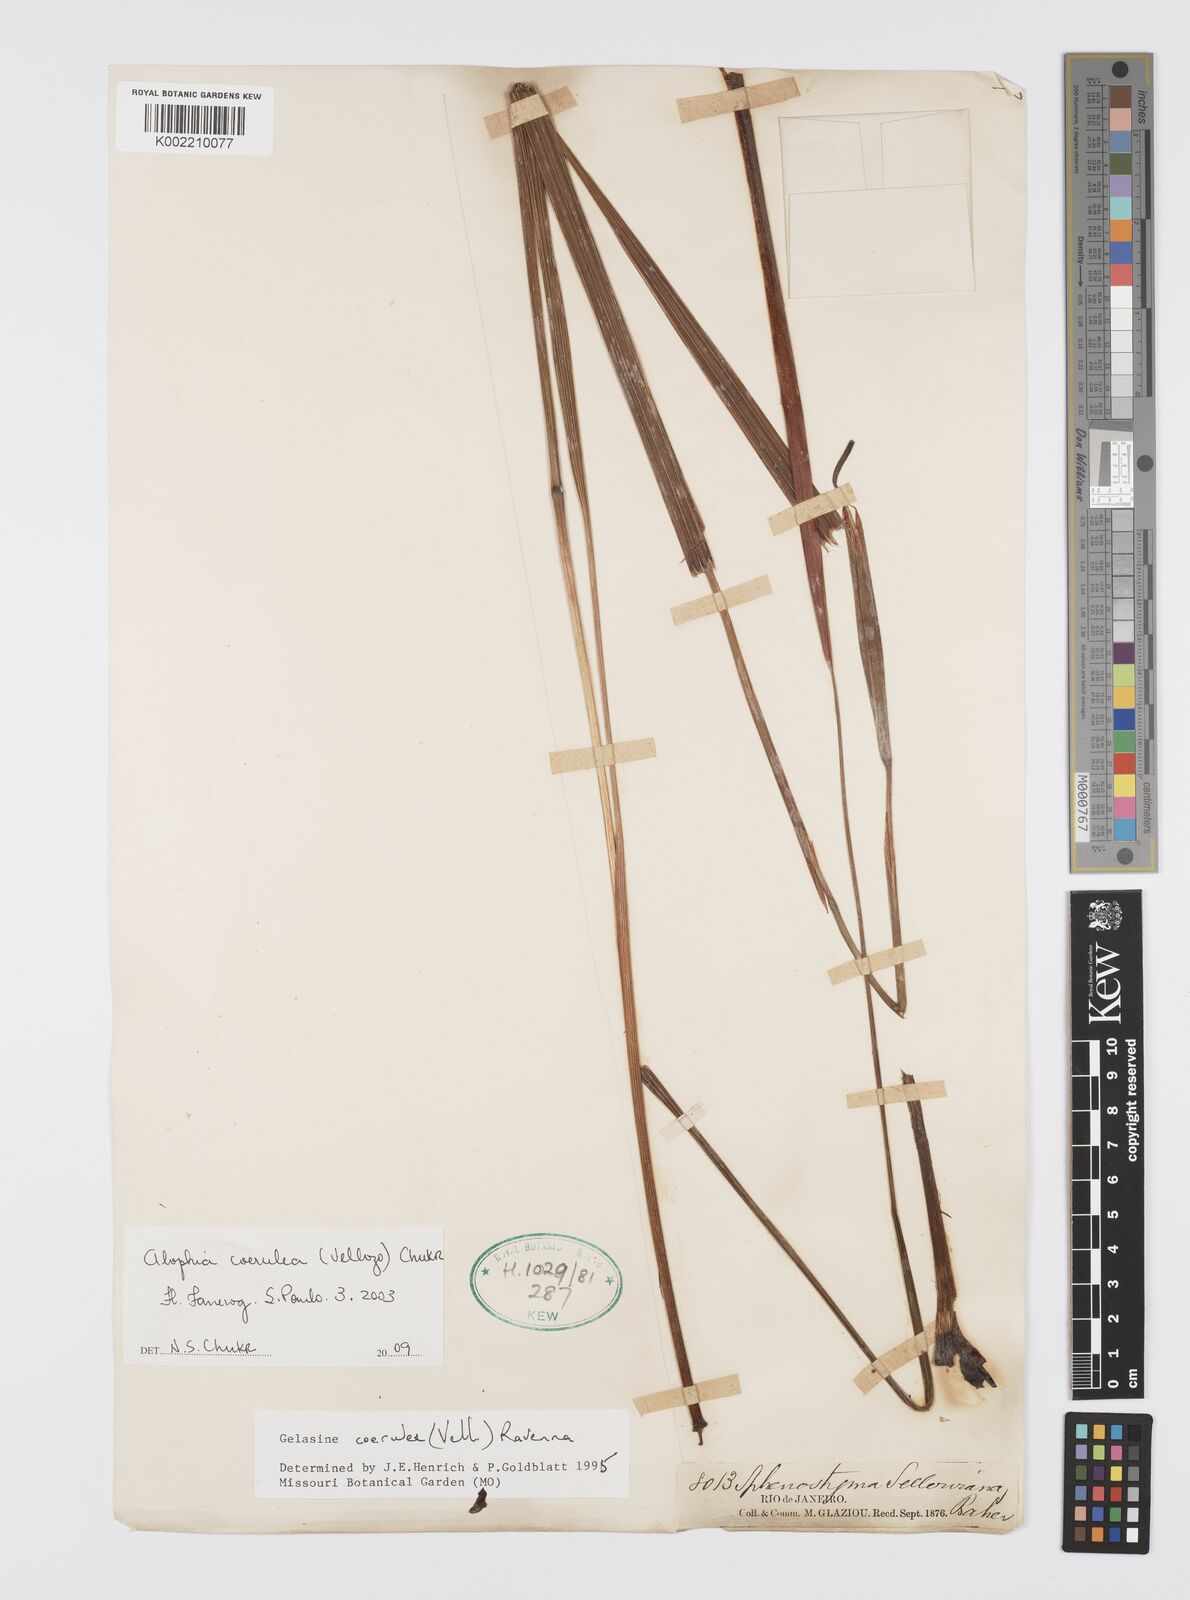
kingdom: Plantae
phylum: Tracheophyta
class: Liliopsida
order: Asparagales
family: Iridaceae
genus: Herbertia
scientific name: Herbertia lahue
